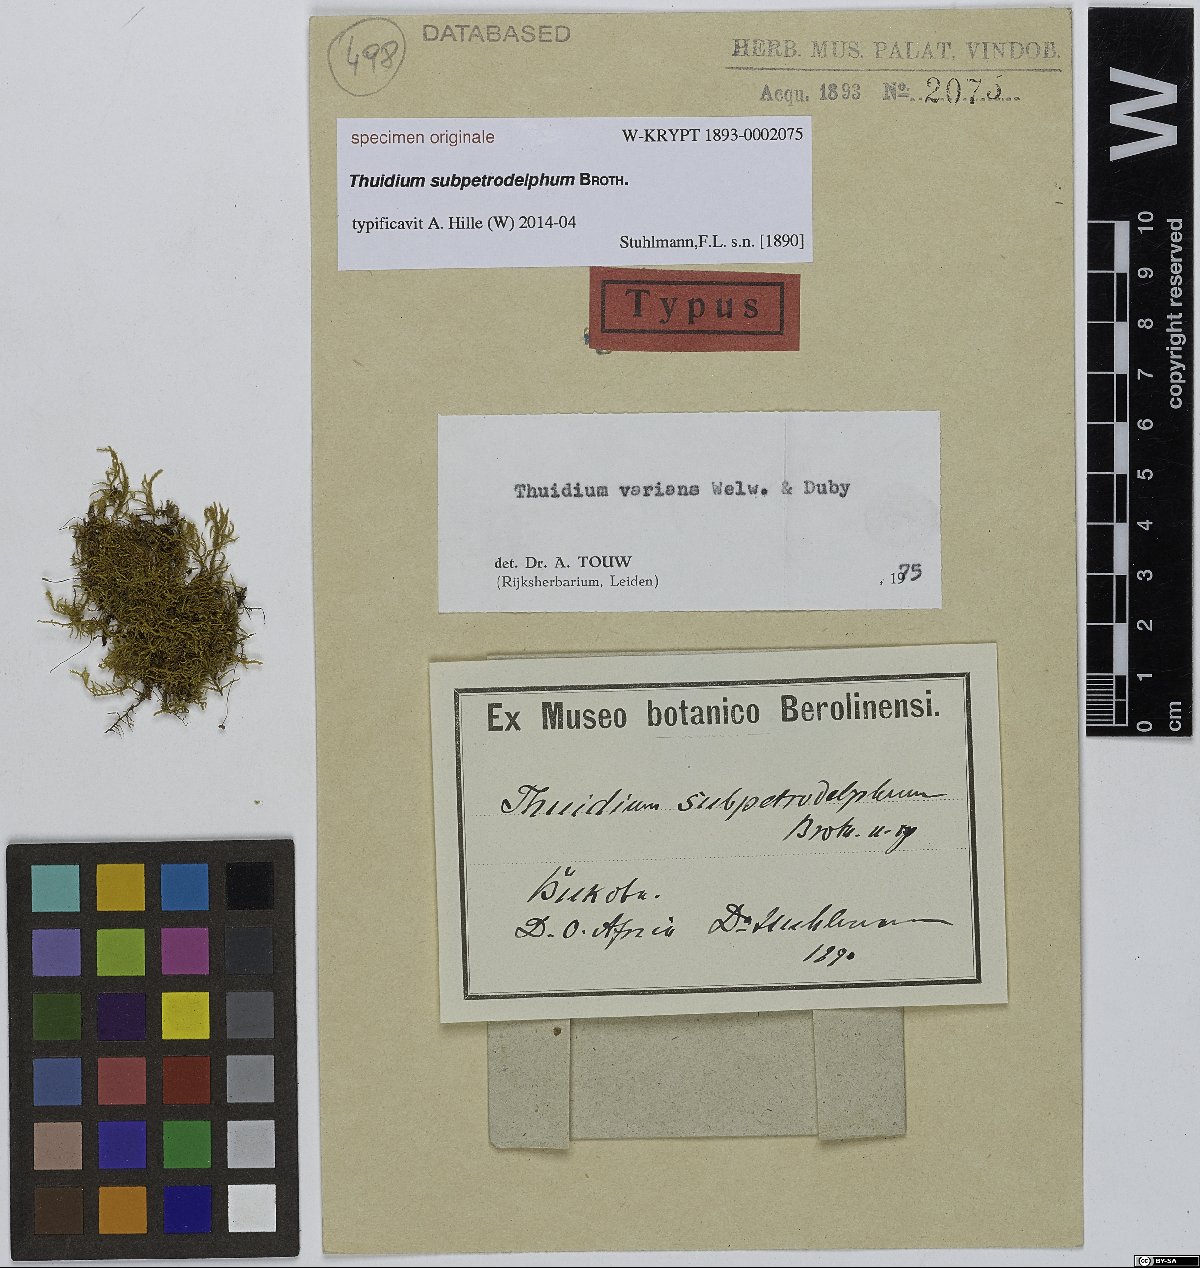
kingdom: Plantae
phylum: Bryophyta
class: Bryopsida
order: Hypnales
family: Thuidiaceae
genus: Thuidium
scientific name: Thuidium
